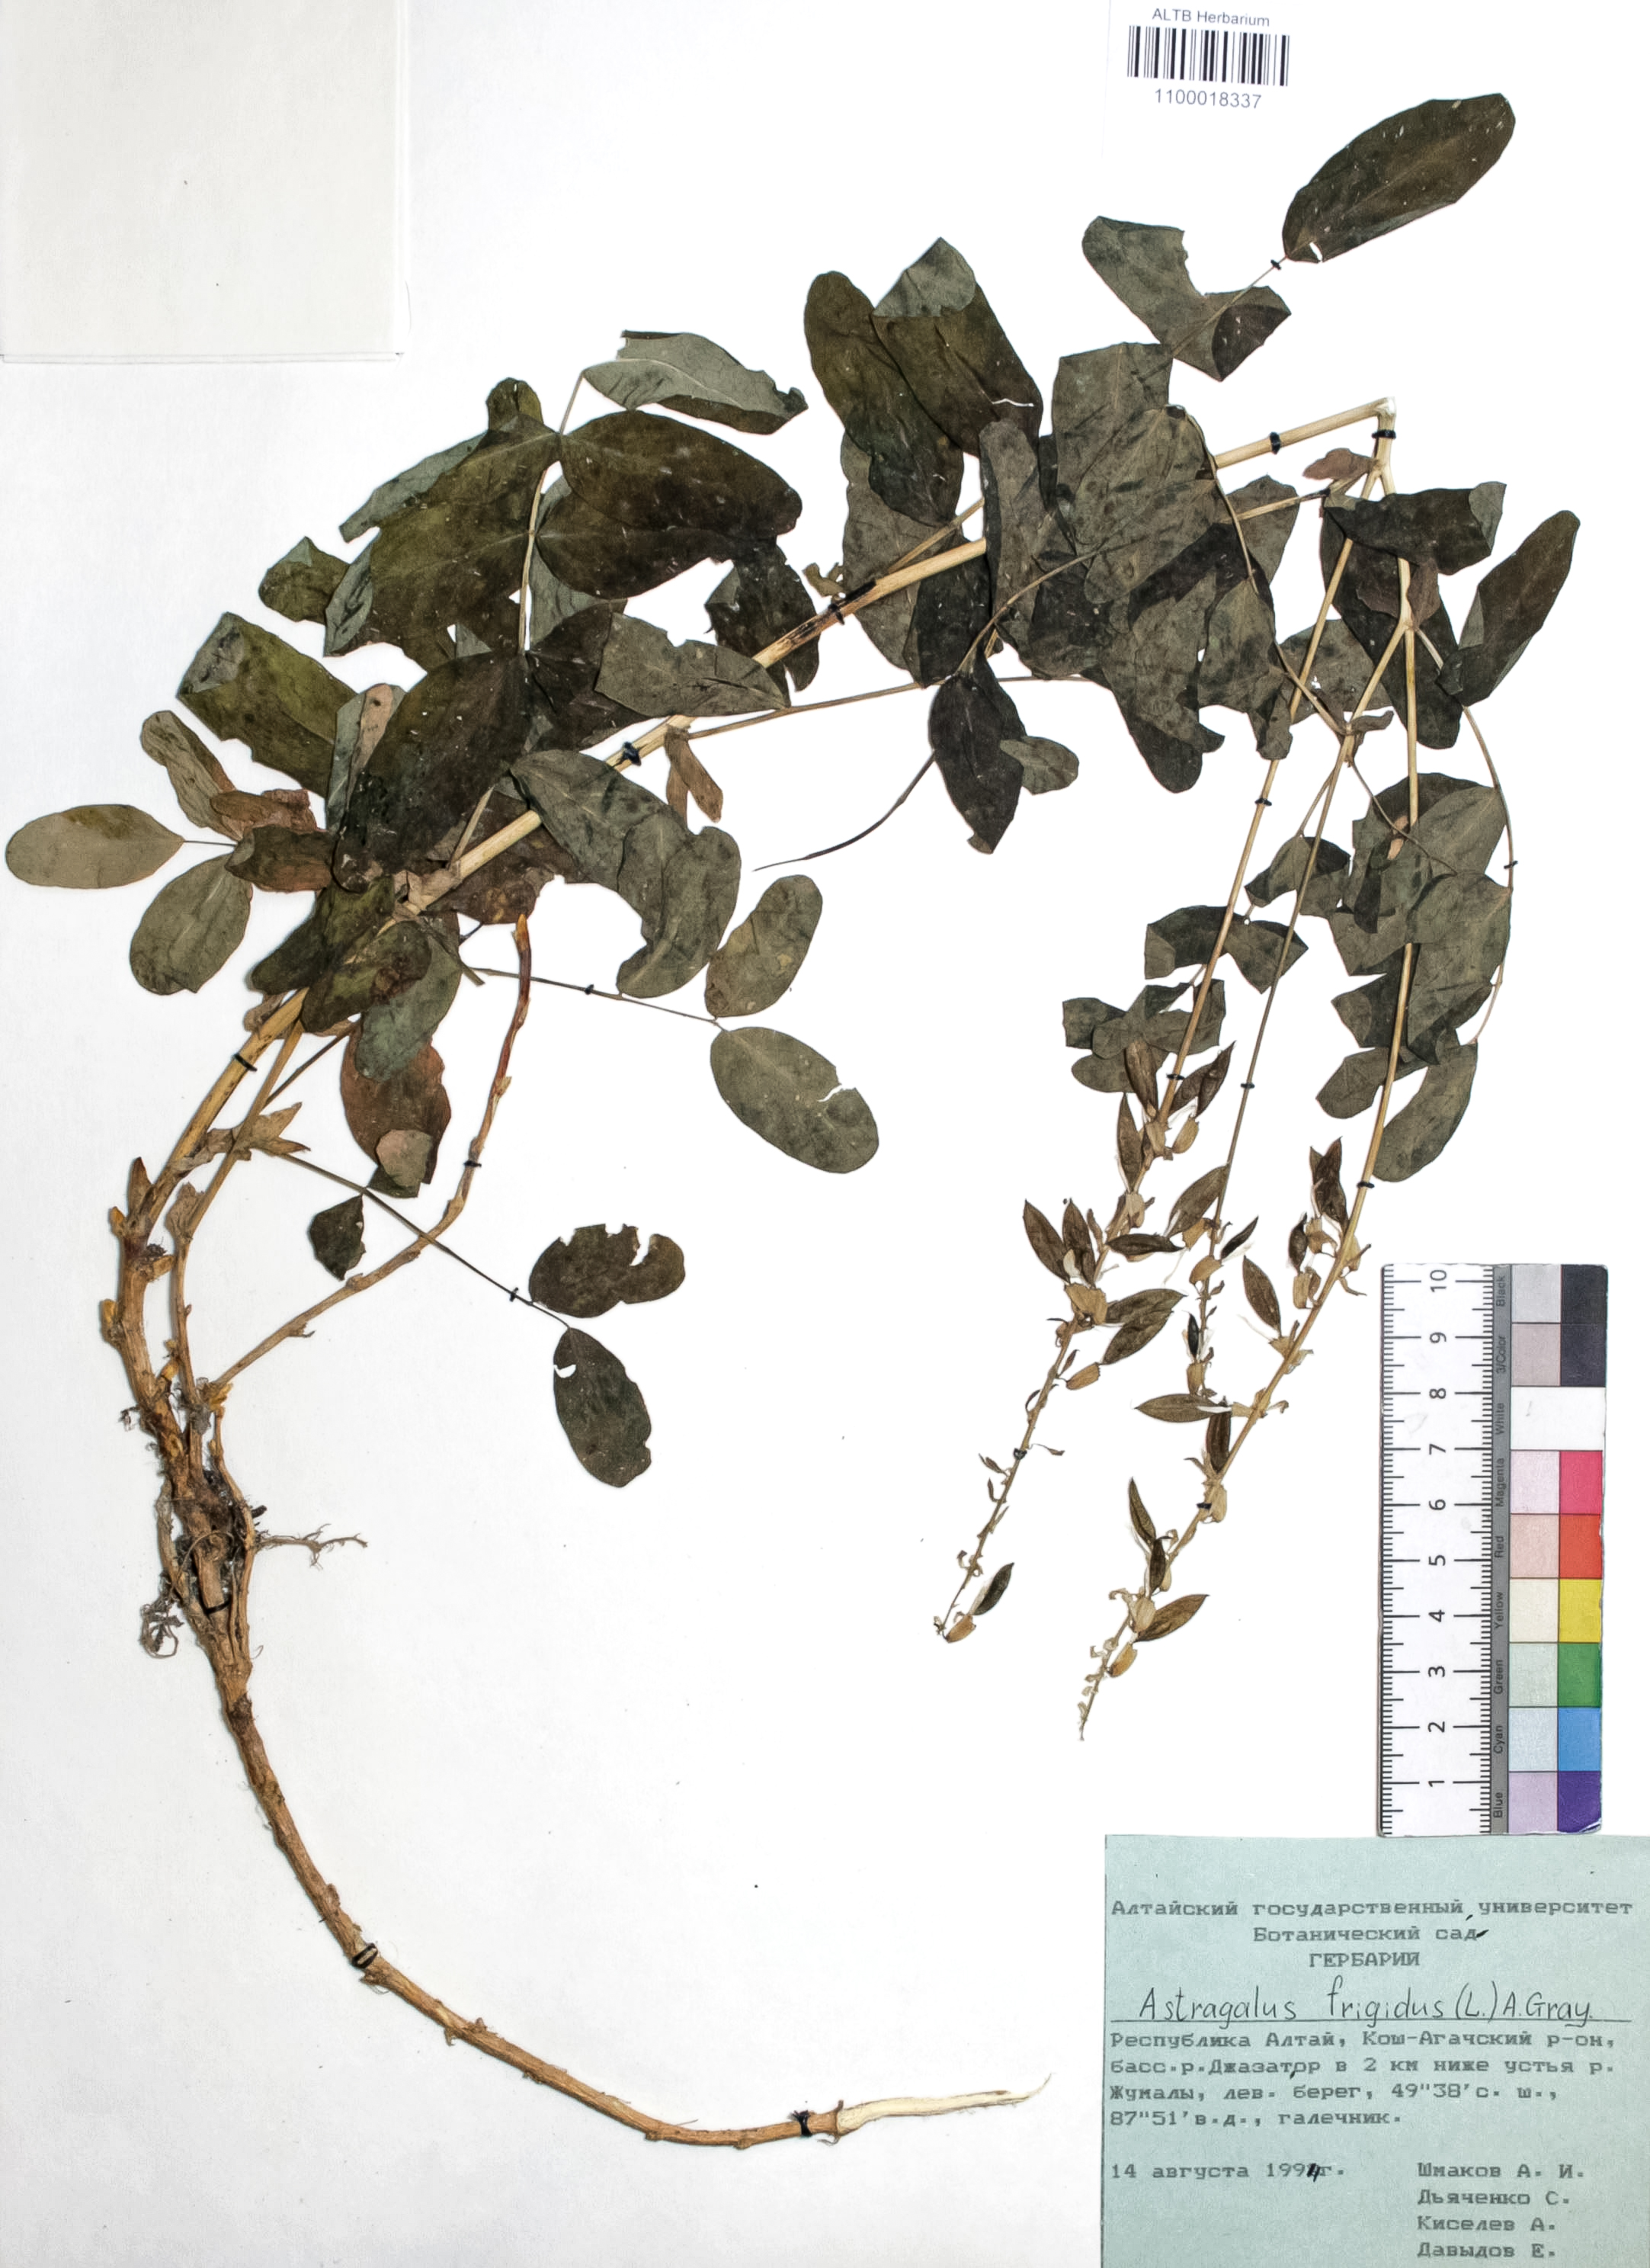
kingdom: Plantae
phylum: Tracheophyta
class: Magnoliopsida
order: Fabales
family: Fabaceae
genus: Astragalus
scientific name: Astragalus frigidus
